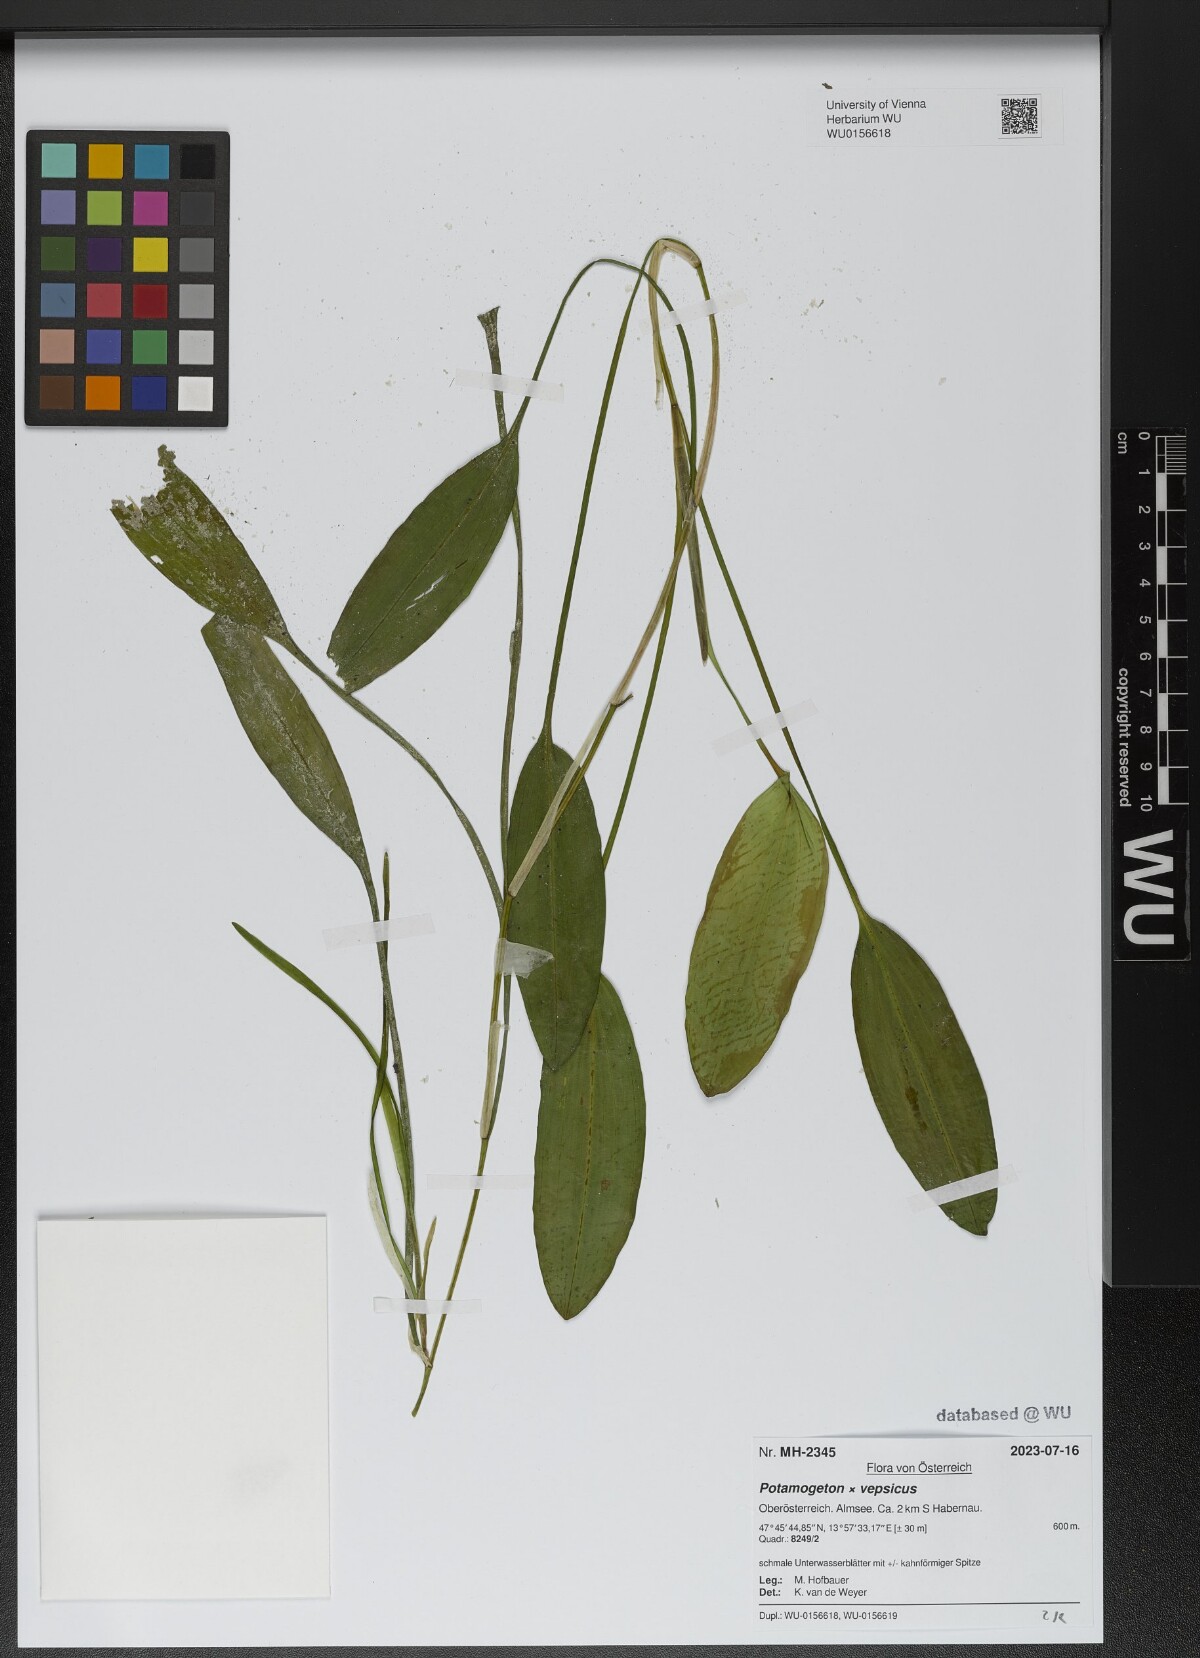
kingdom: Plantae
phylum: Tracheophyta
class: Liliopsida
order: Alismatales
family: Potamogetonaceae
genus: Potamogeton
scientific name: Potamogeton vepsicus
